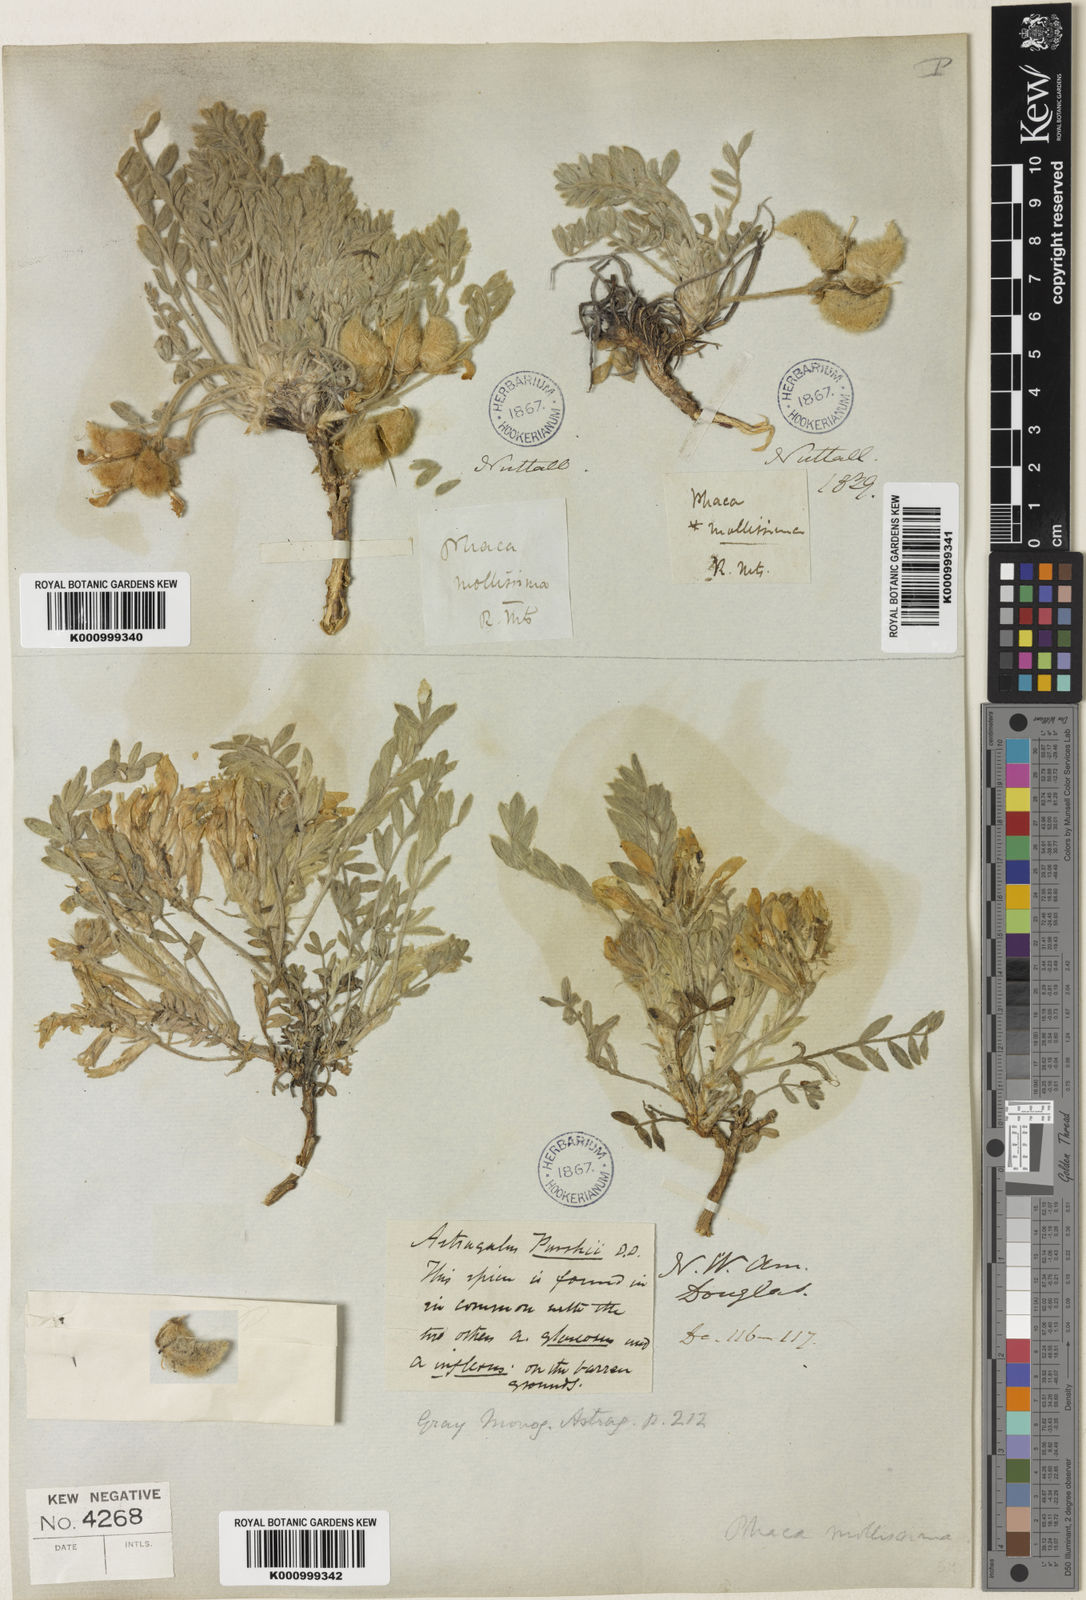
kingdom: Plantae
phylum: Tracheophyta
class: Magnoliopsida
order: Fabales
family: Fabaceae
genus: Astragalus
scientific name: Astragalus
